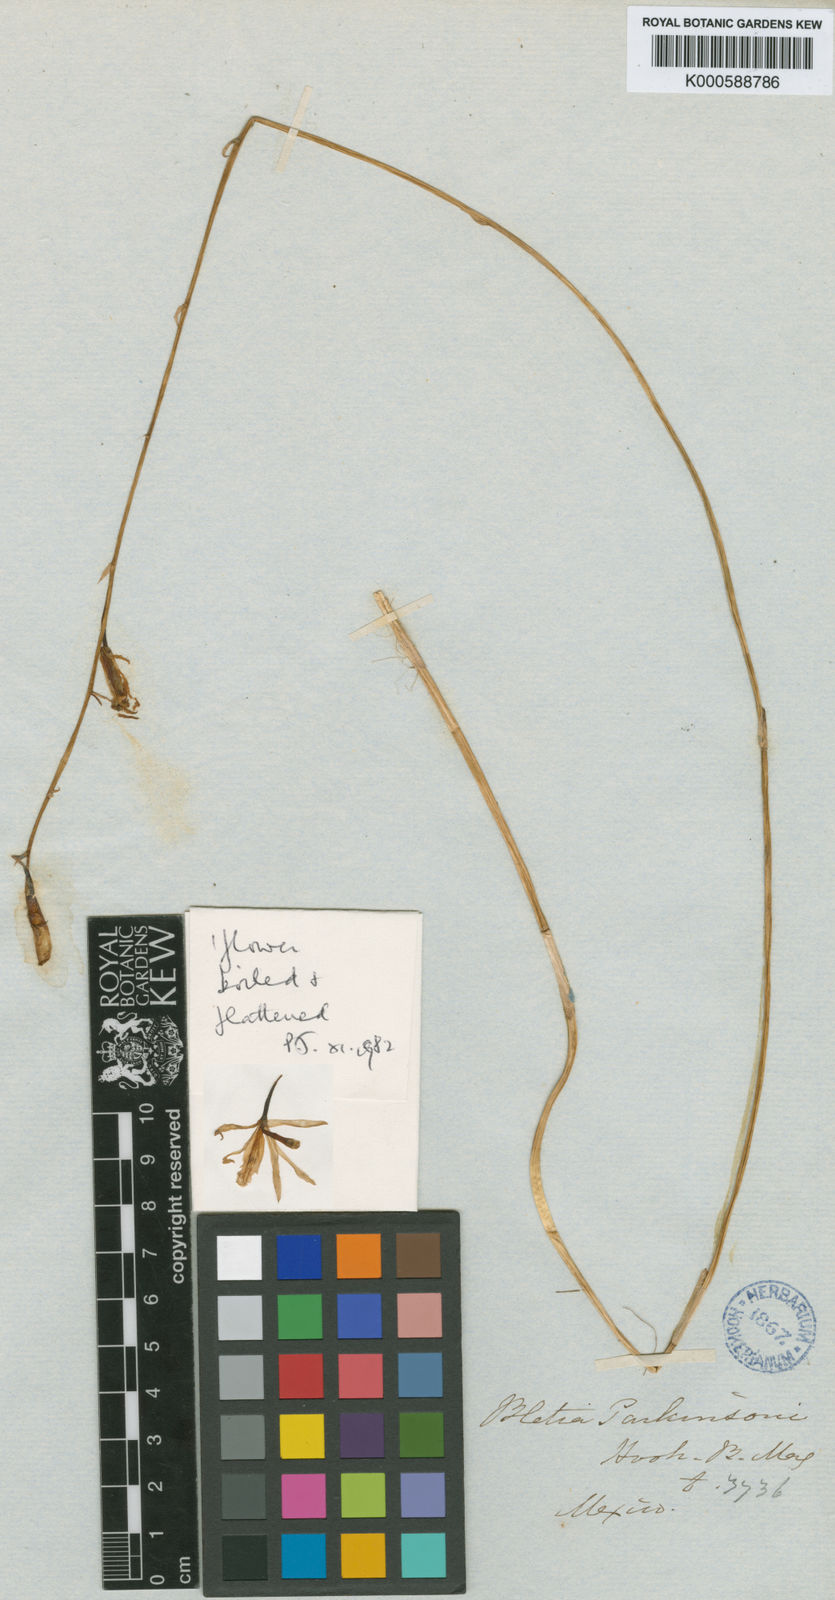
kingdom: Plantae
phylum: Tracheophyta
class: Liliopsida
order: Asparagales
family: Orchidaceae
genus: Bletia
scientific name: Bletia parkinsonii
